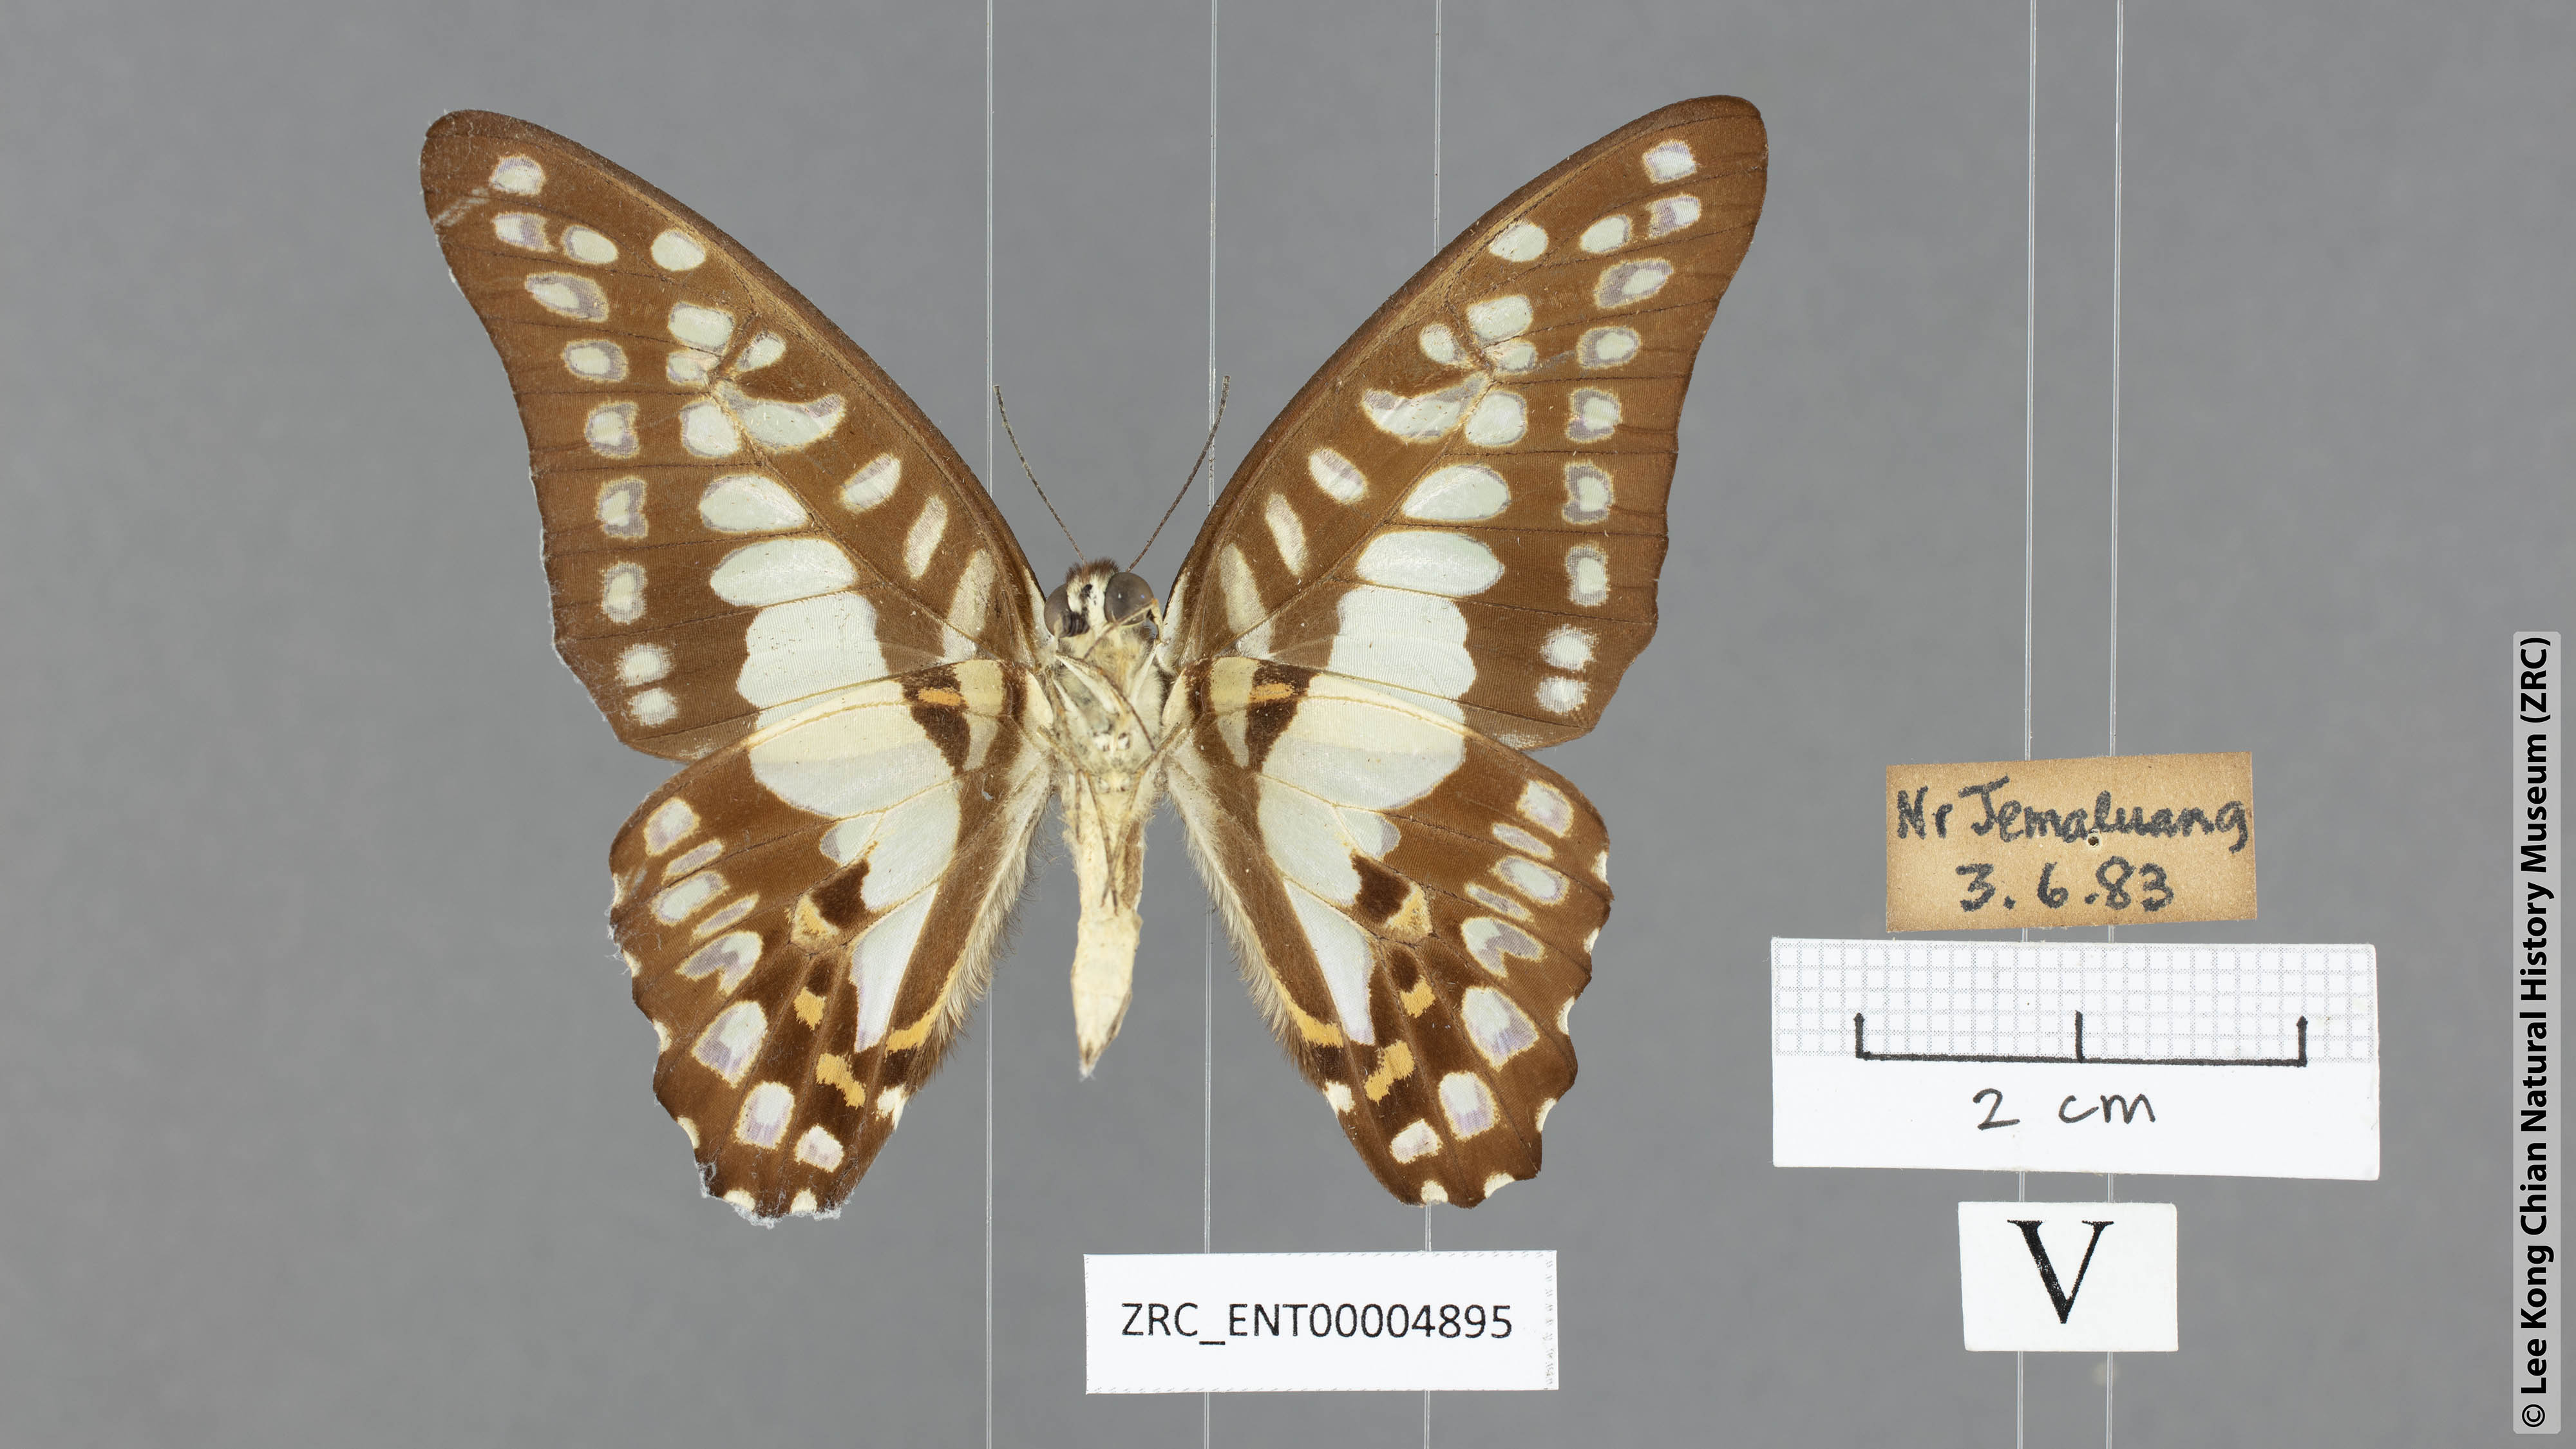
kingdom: Animalia
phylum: Arthropoda
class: Insecta
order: Lepidoptera
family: Papilionidae
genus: Graphium
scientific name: Graphium eurypylus
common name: Great jay
